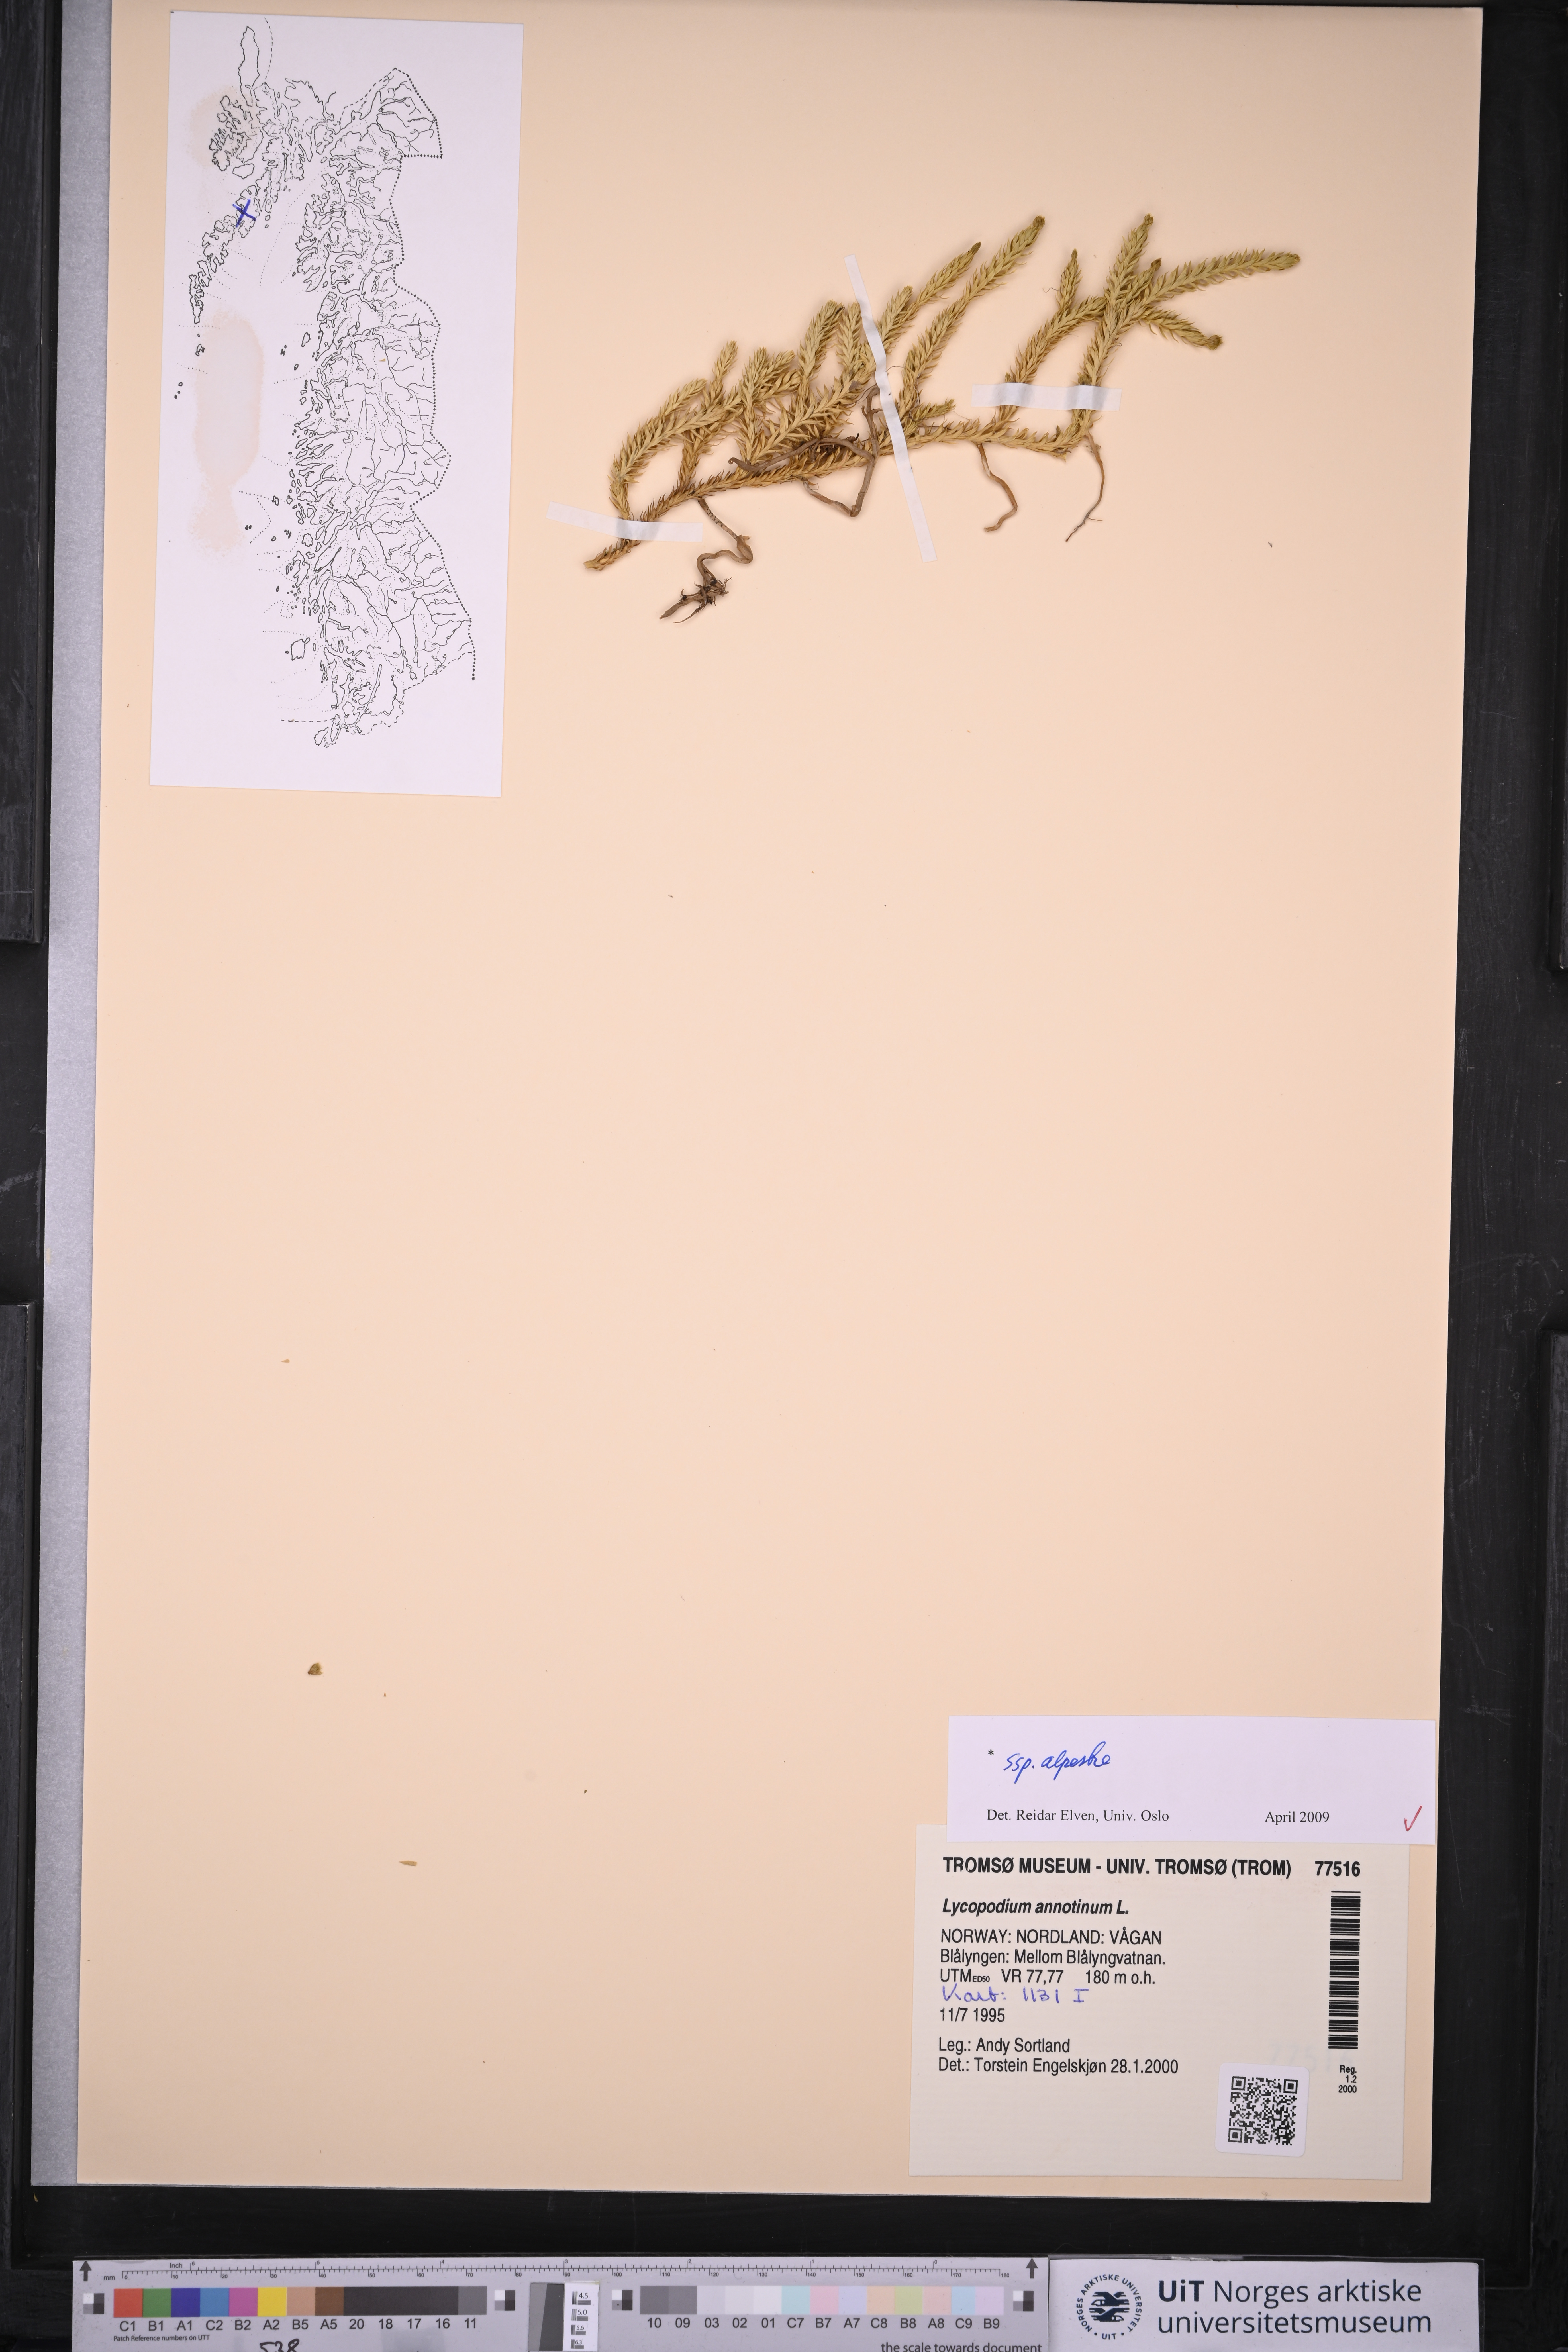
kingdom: Plantae
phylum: Tracheophyta
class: Lycopodiopsida
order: Lycopodiales
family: Lycopodiaceae
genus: Spinulum
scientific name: Spinulum annotinum
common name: Interrupted club-moss
